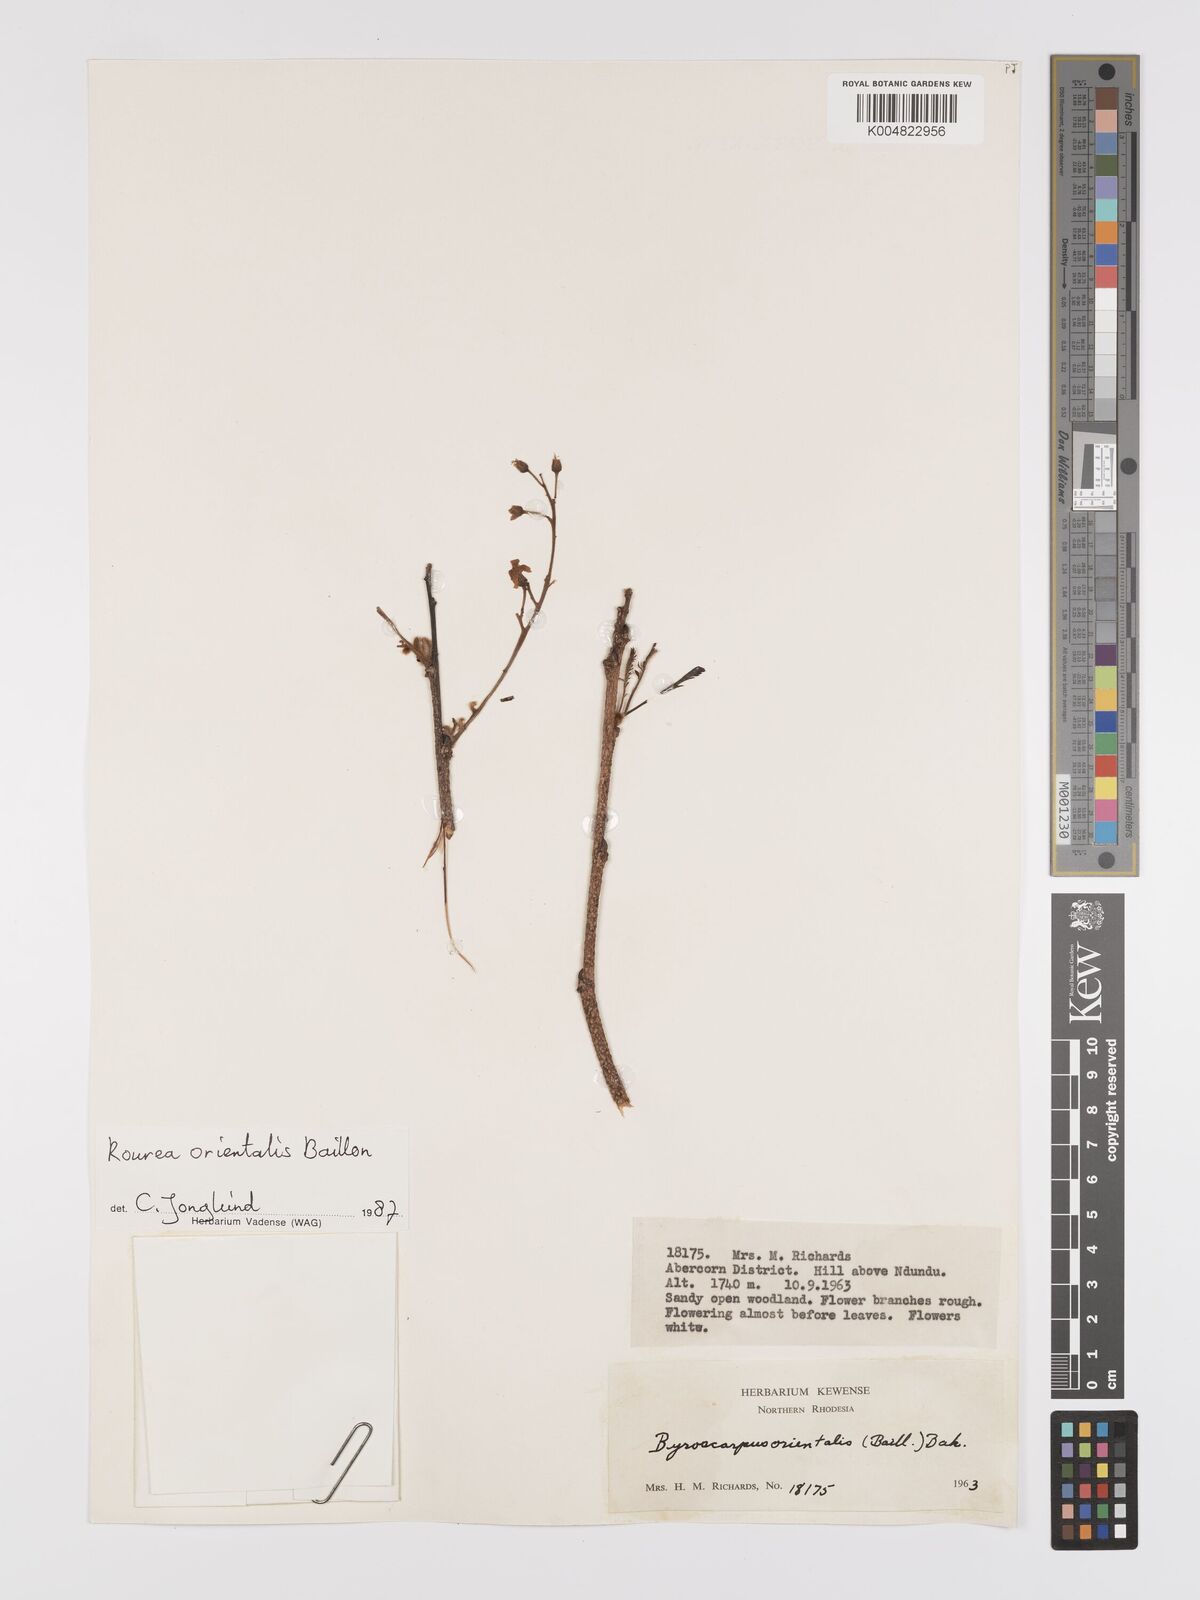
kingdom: Plantae
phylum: Tracheophyta
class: Magnoliopsida
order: Oxalidales
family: Connaraceae
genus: Rourea
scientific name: Rourea orientalis
